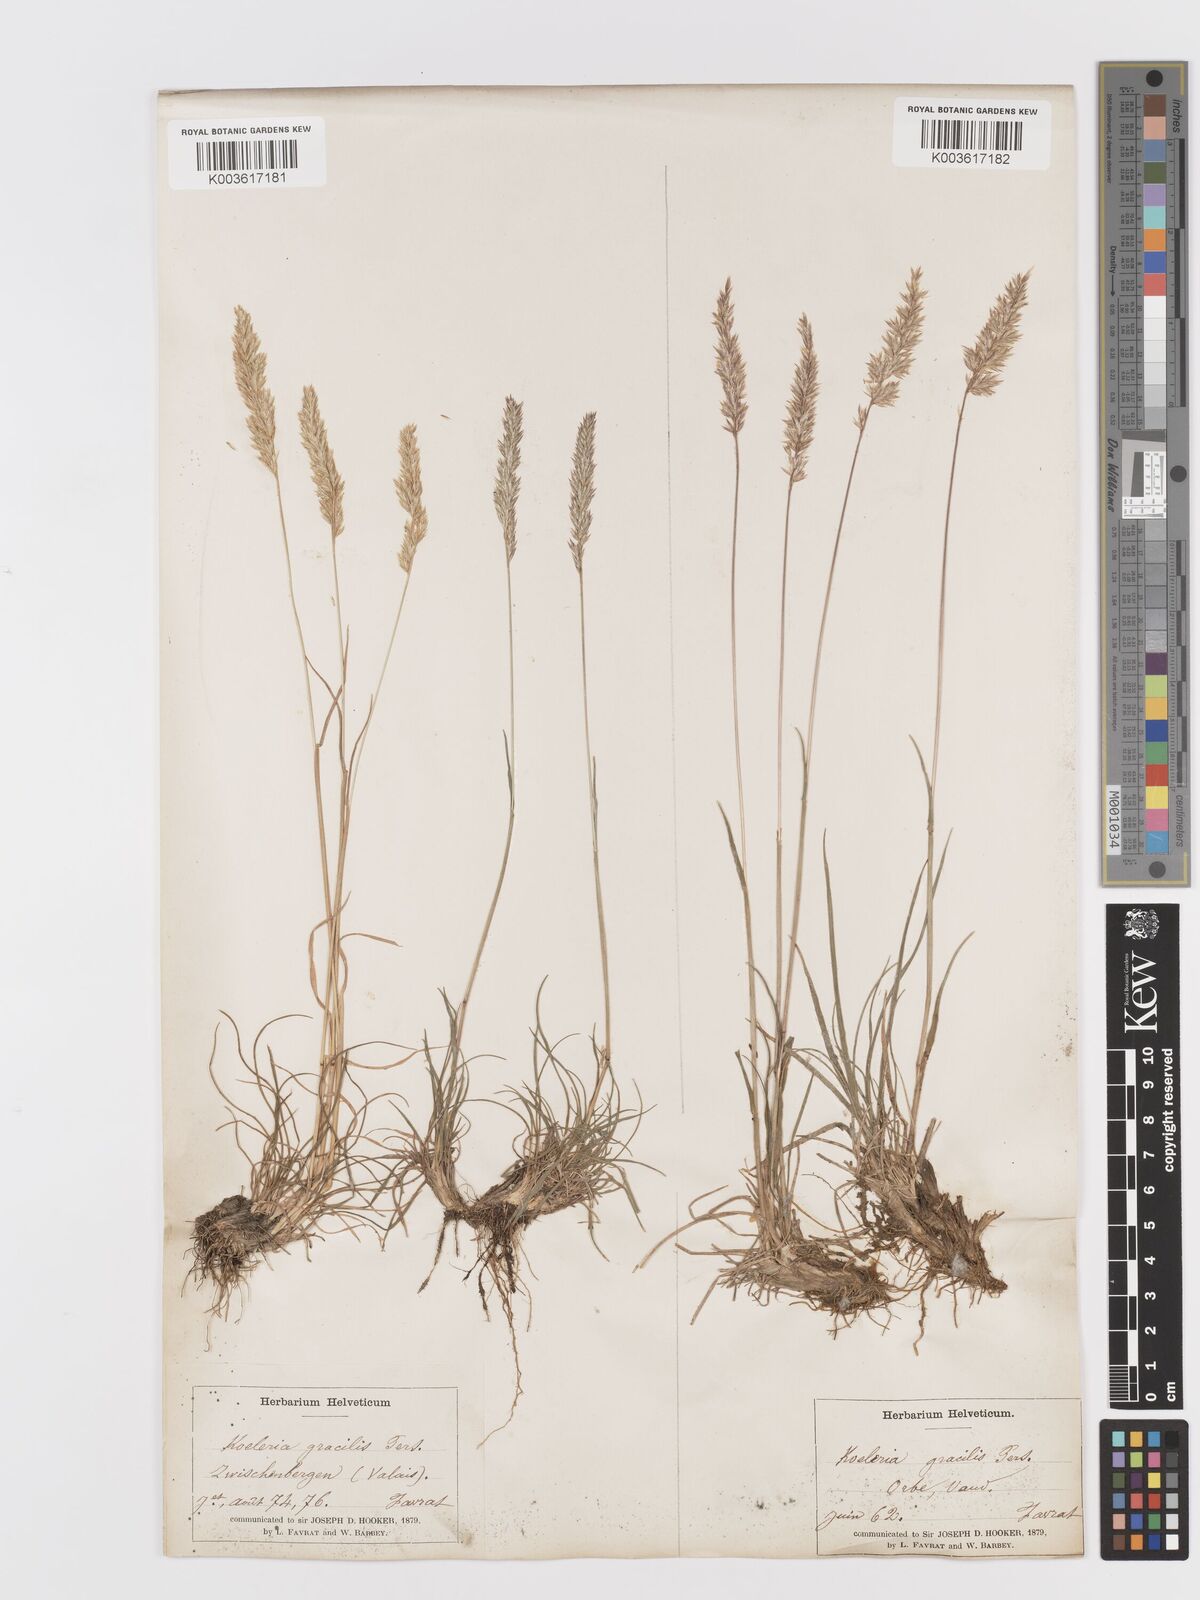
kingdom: Plantae
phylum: Tracheophyta
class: Liliopsida
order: Poales
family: Poaceae
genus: Koeleria
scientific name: Koeleria
